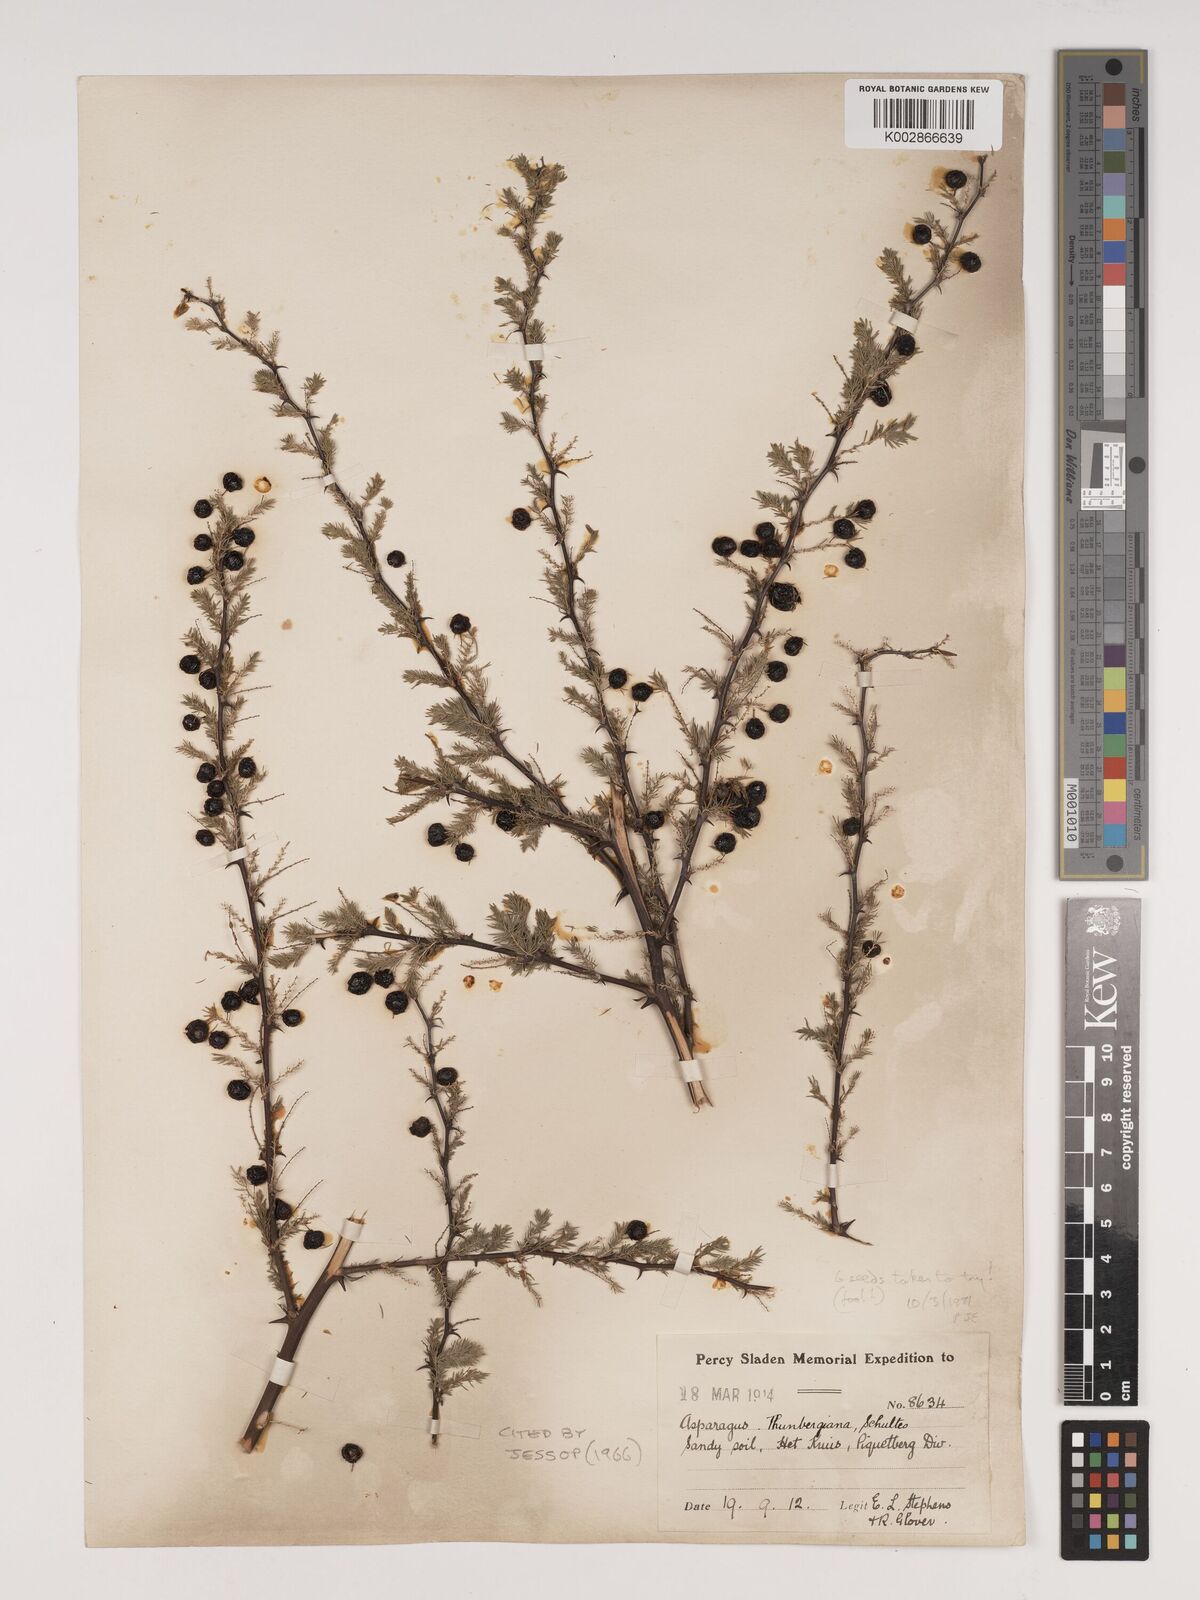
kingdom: Plantae
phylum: Tracheophyta
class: Liliopsida
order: Asparagales
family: Asparagaceae
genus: Asparagus
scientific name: Asparagus rubicundus
